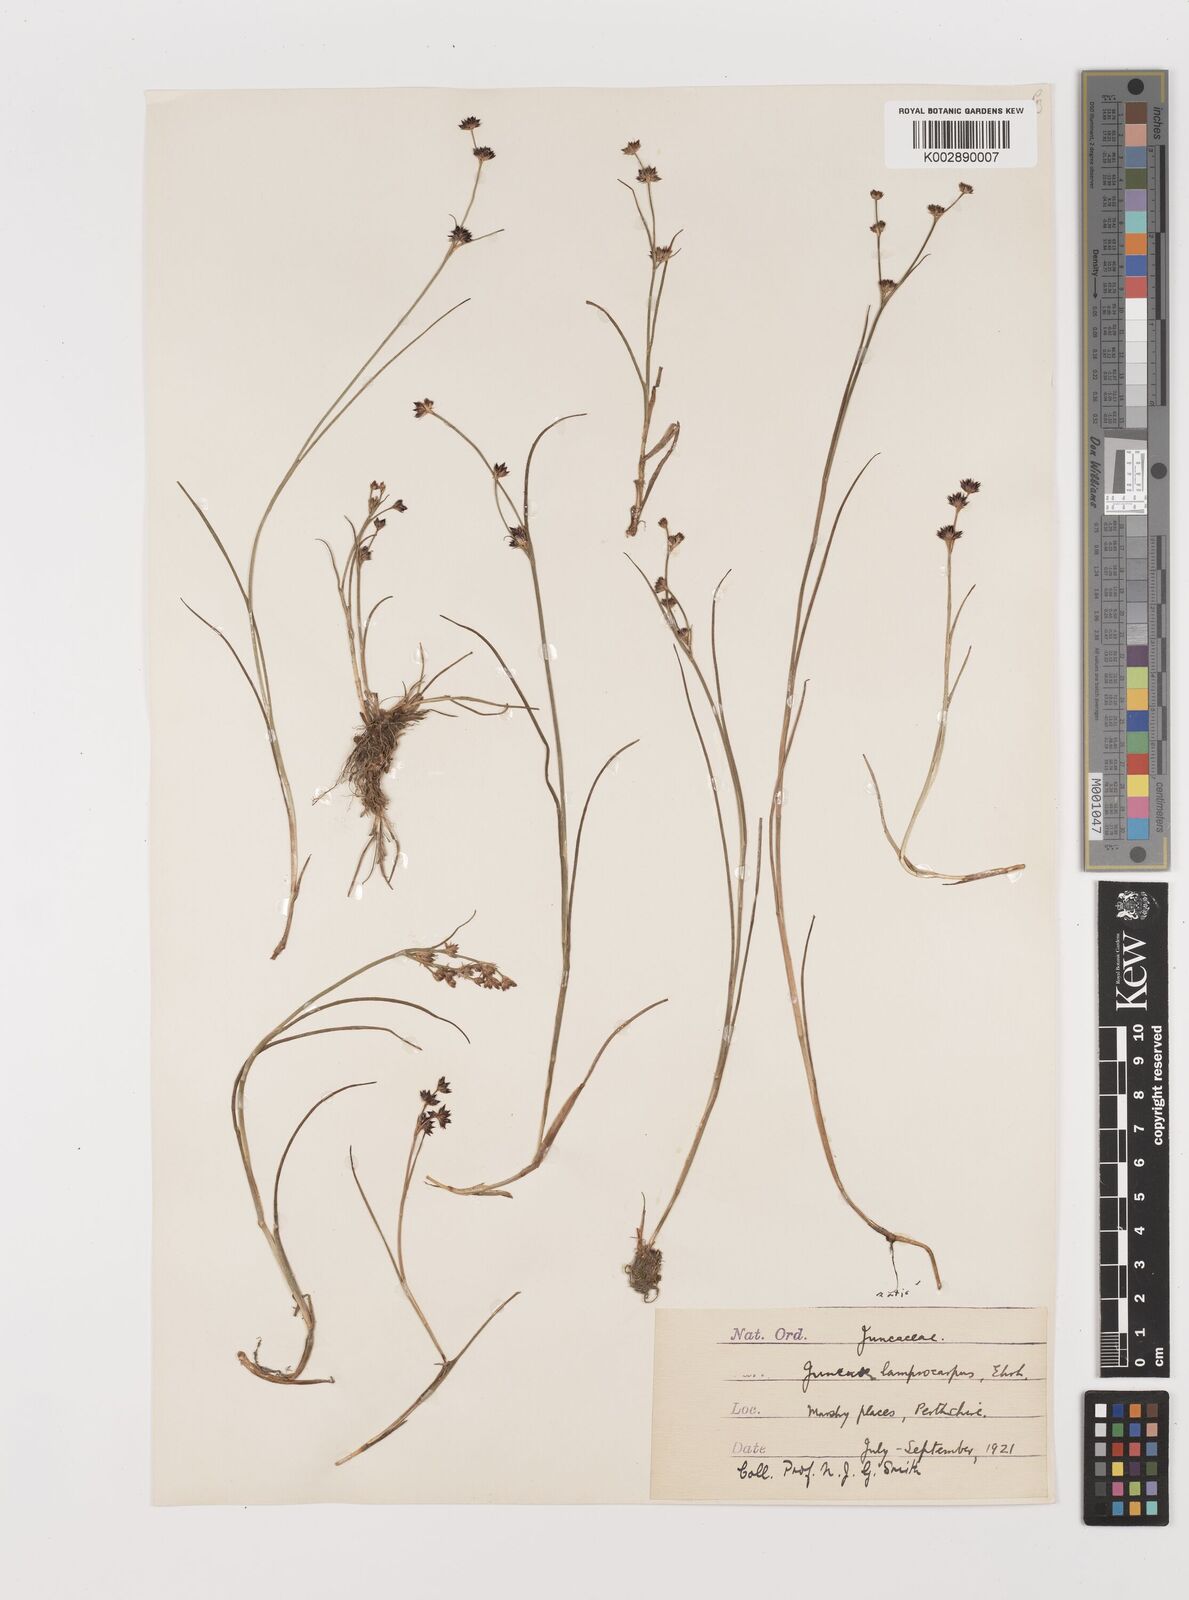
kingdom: Plantae
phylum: Tracheophyta
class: Liliopsida
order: Poales
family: Juncaceae
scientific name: Juncaceae
